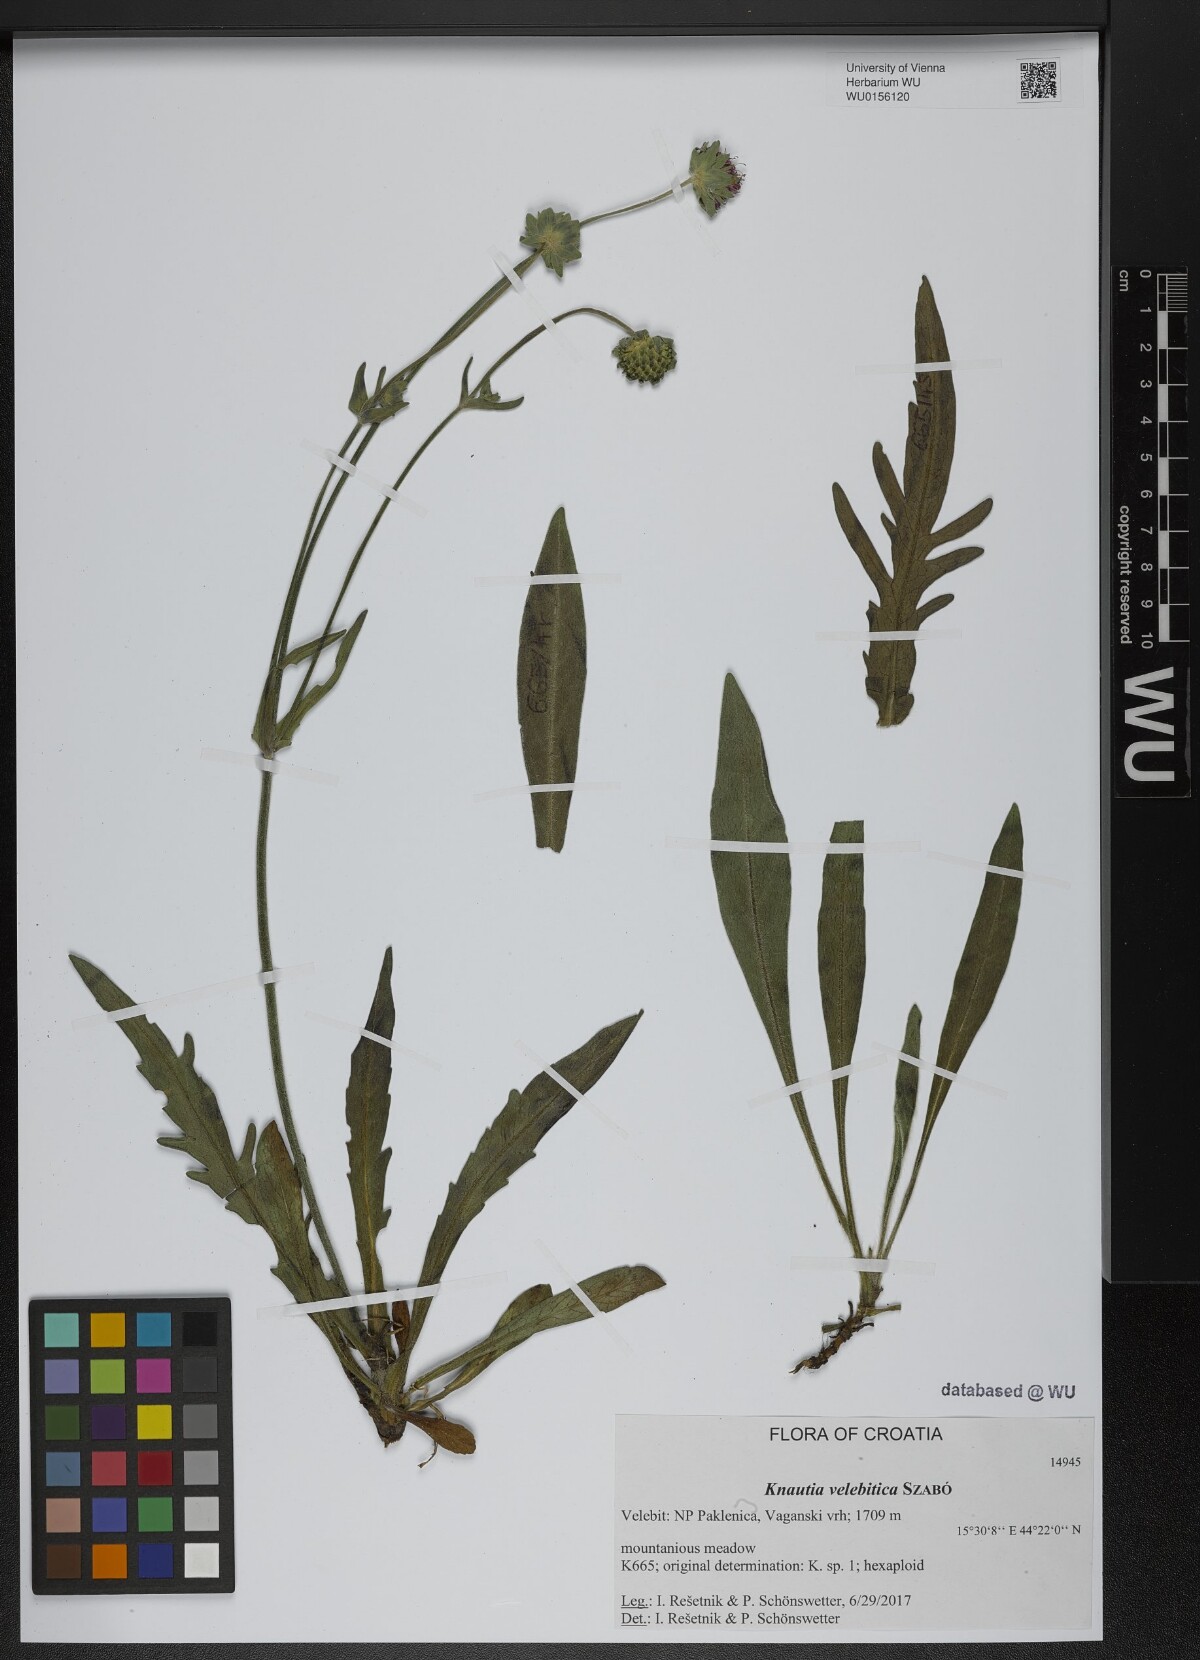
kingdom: Plantae
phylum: Tracheophyta
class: Magnoliopsida
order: Dipsacales
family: Caprifoliaceae
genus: Knautia
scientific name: Knautia velebitica
